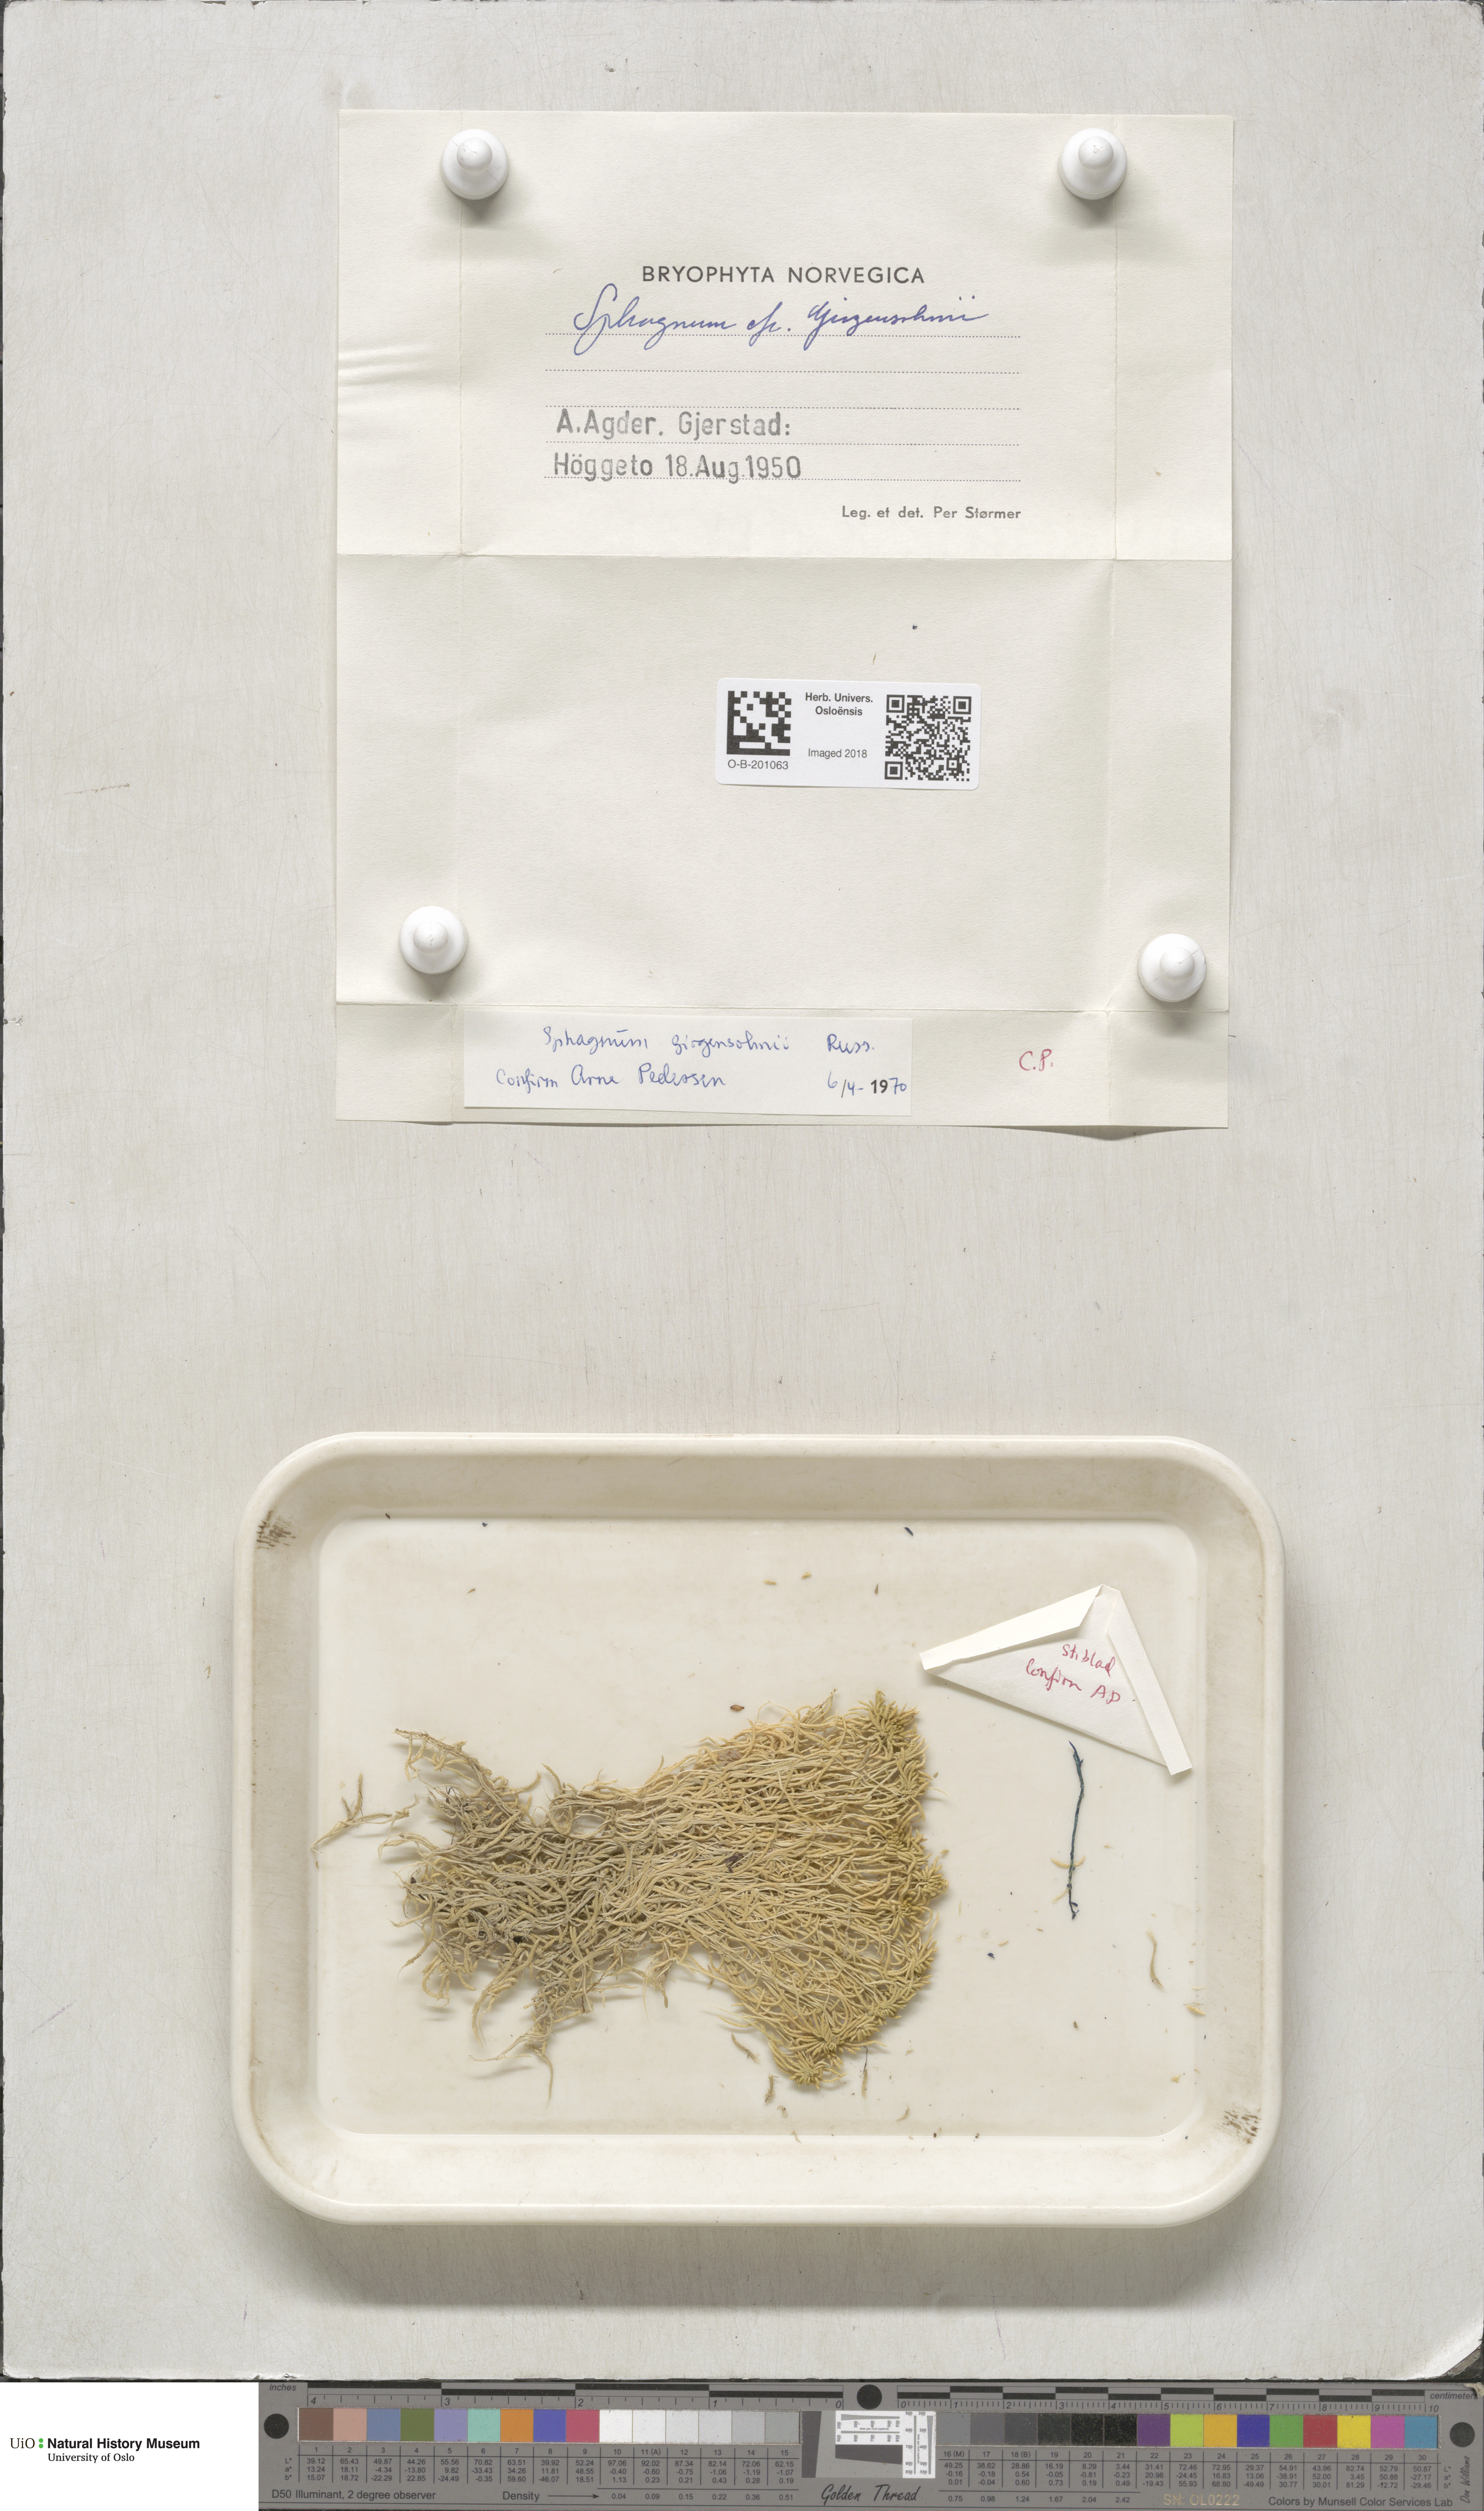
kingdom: Plantae
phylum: Bryophyta
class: Sphagnopsida
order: Sphagnales
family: Sphagnaceae
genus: Sphagnum
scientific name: Sphagnum girgensohnii
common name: Girgensohn's peat moss
